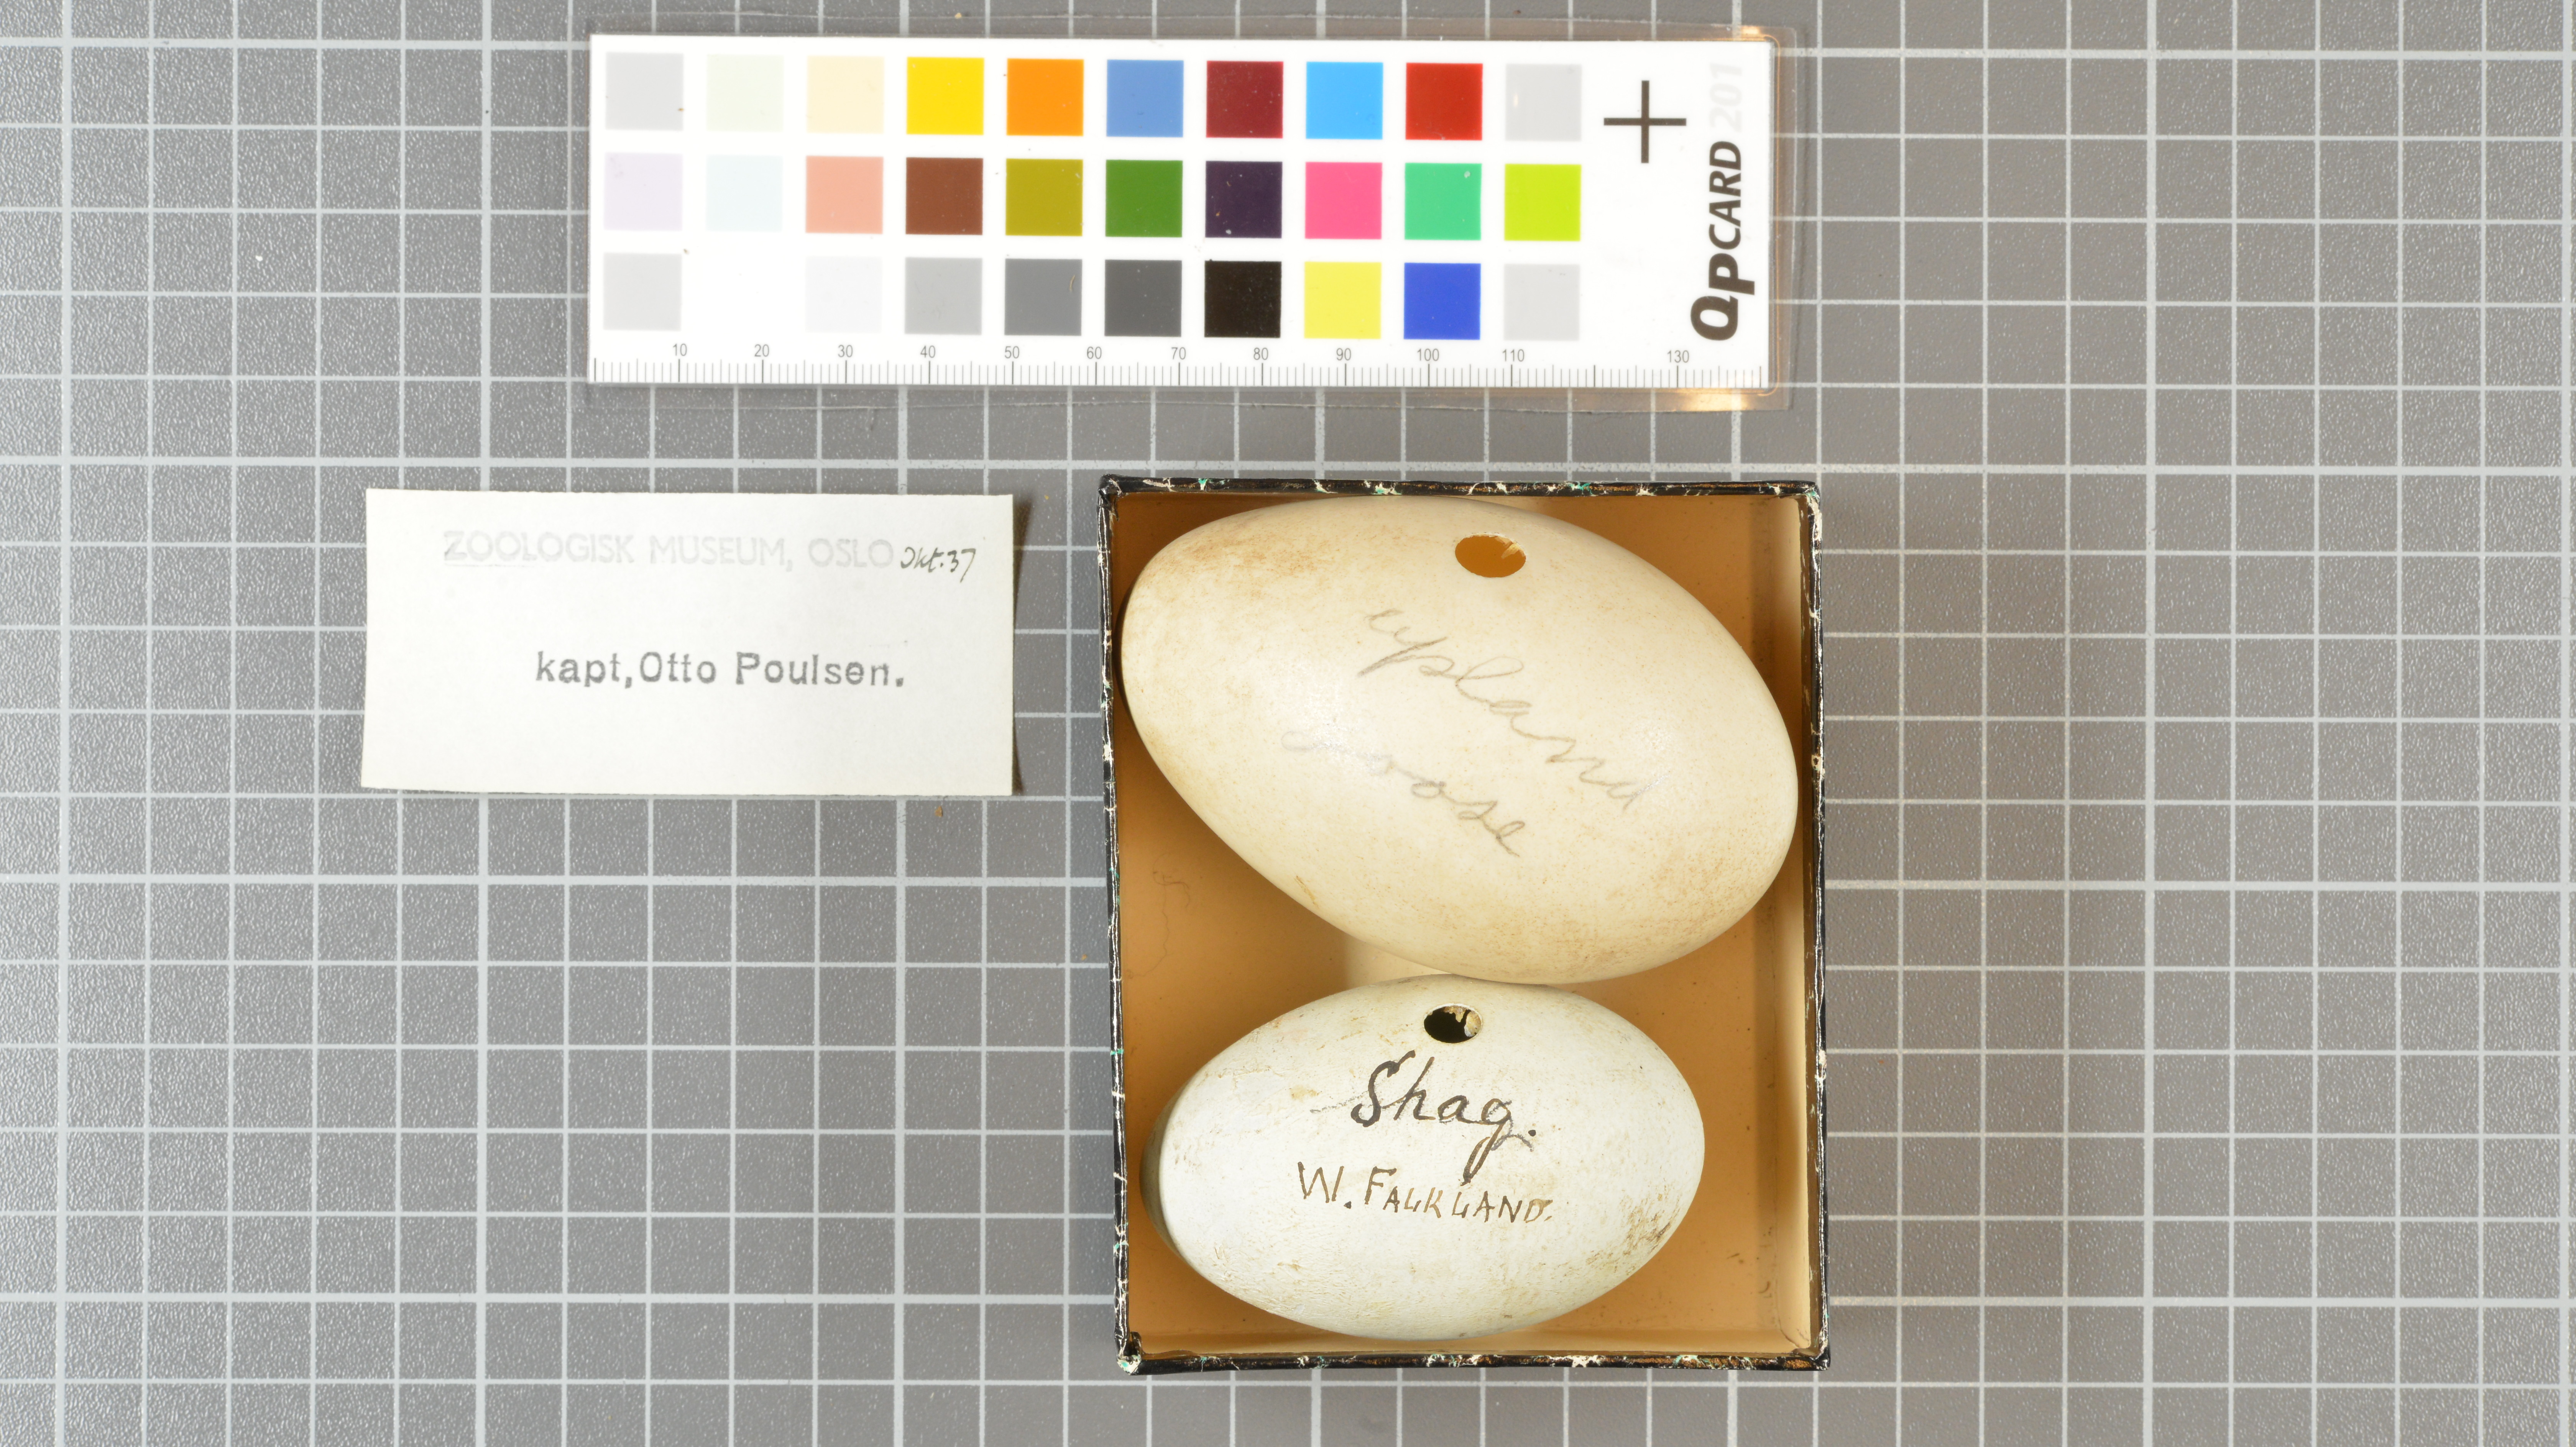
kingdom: Animalia
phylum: Chordata
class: Aves
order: Anseriformes
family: Anatidae
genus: Chloephaga
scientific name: Chloephaga picta
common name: Upland goose
